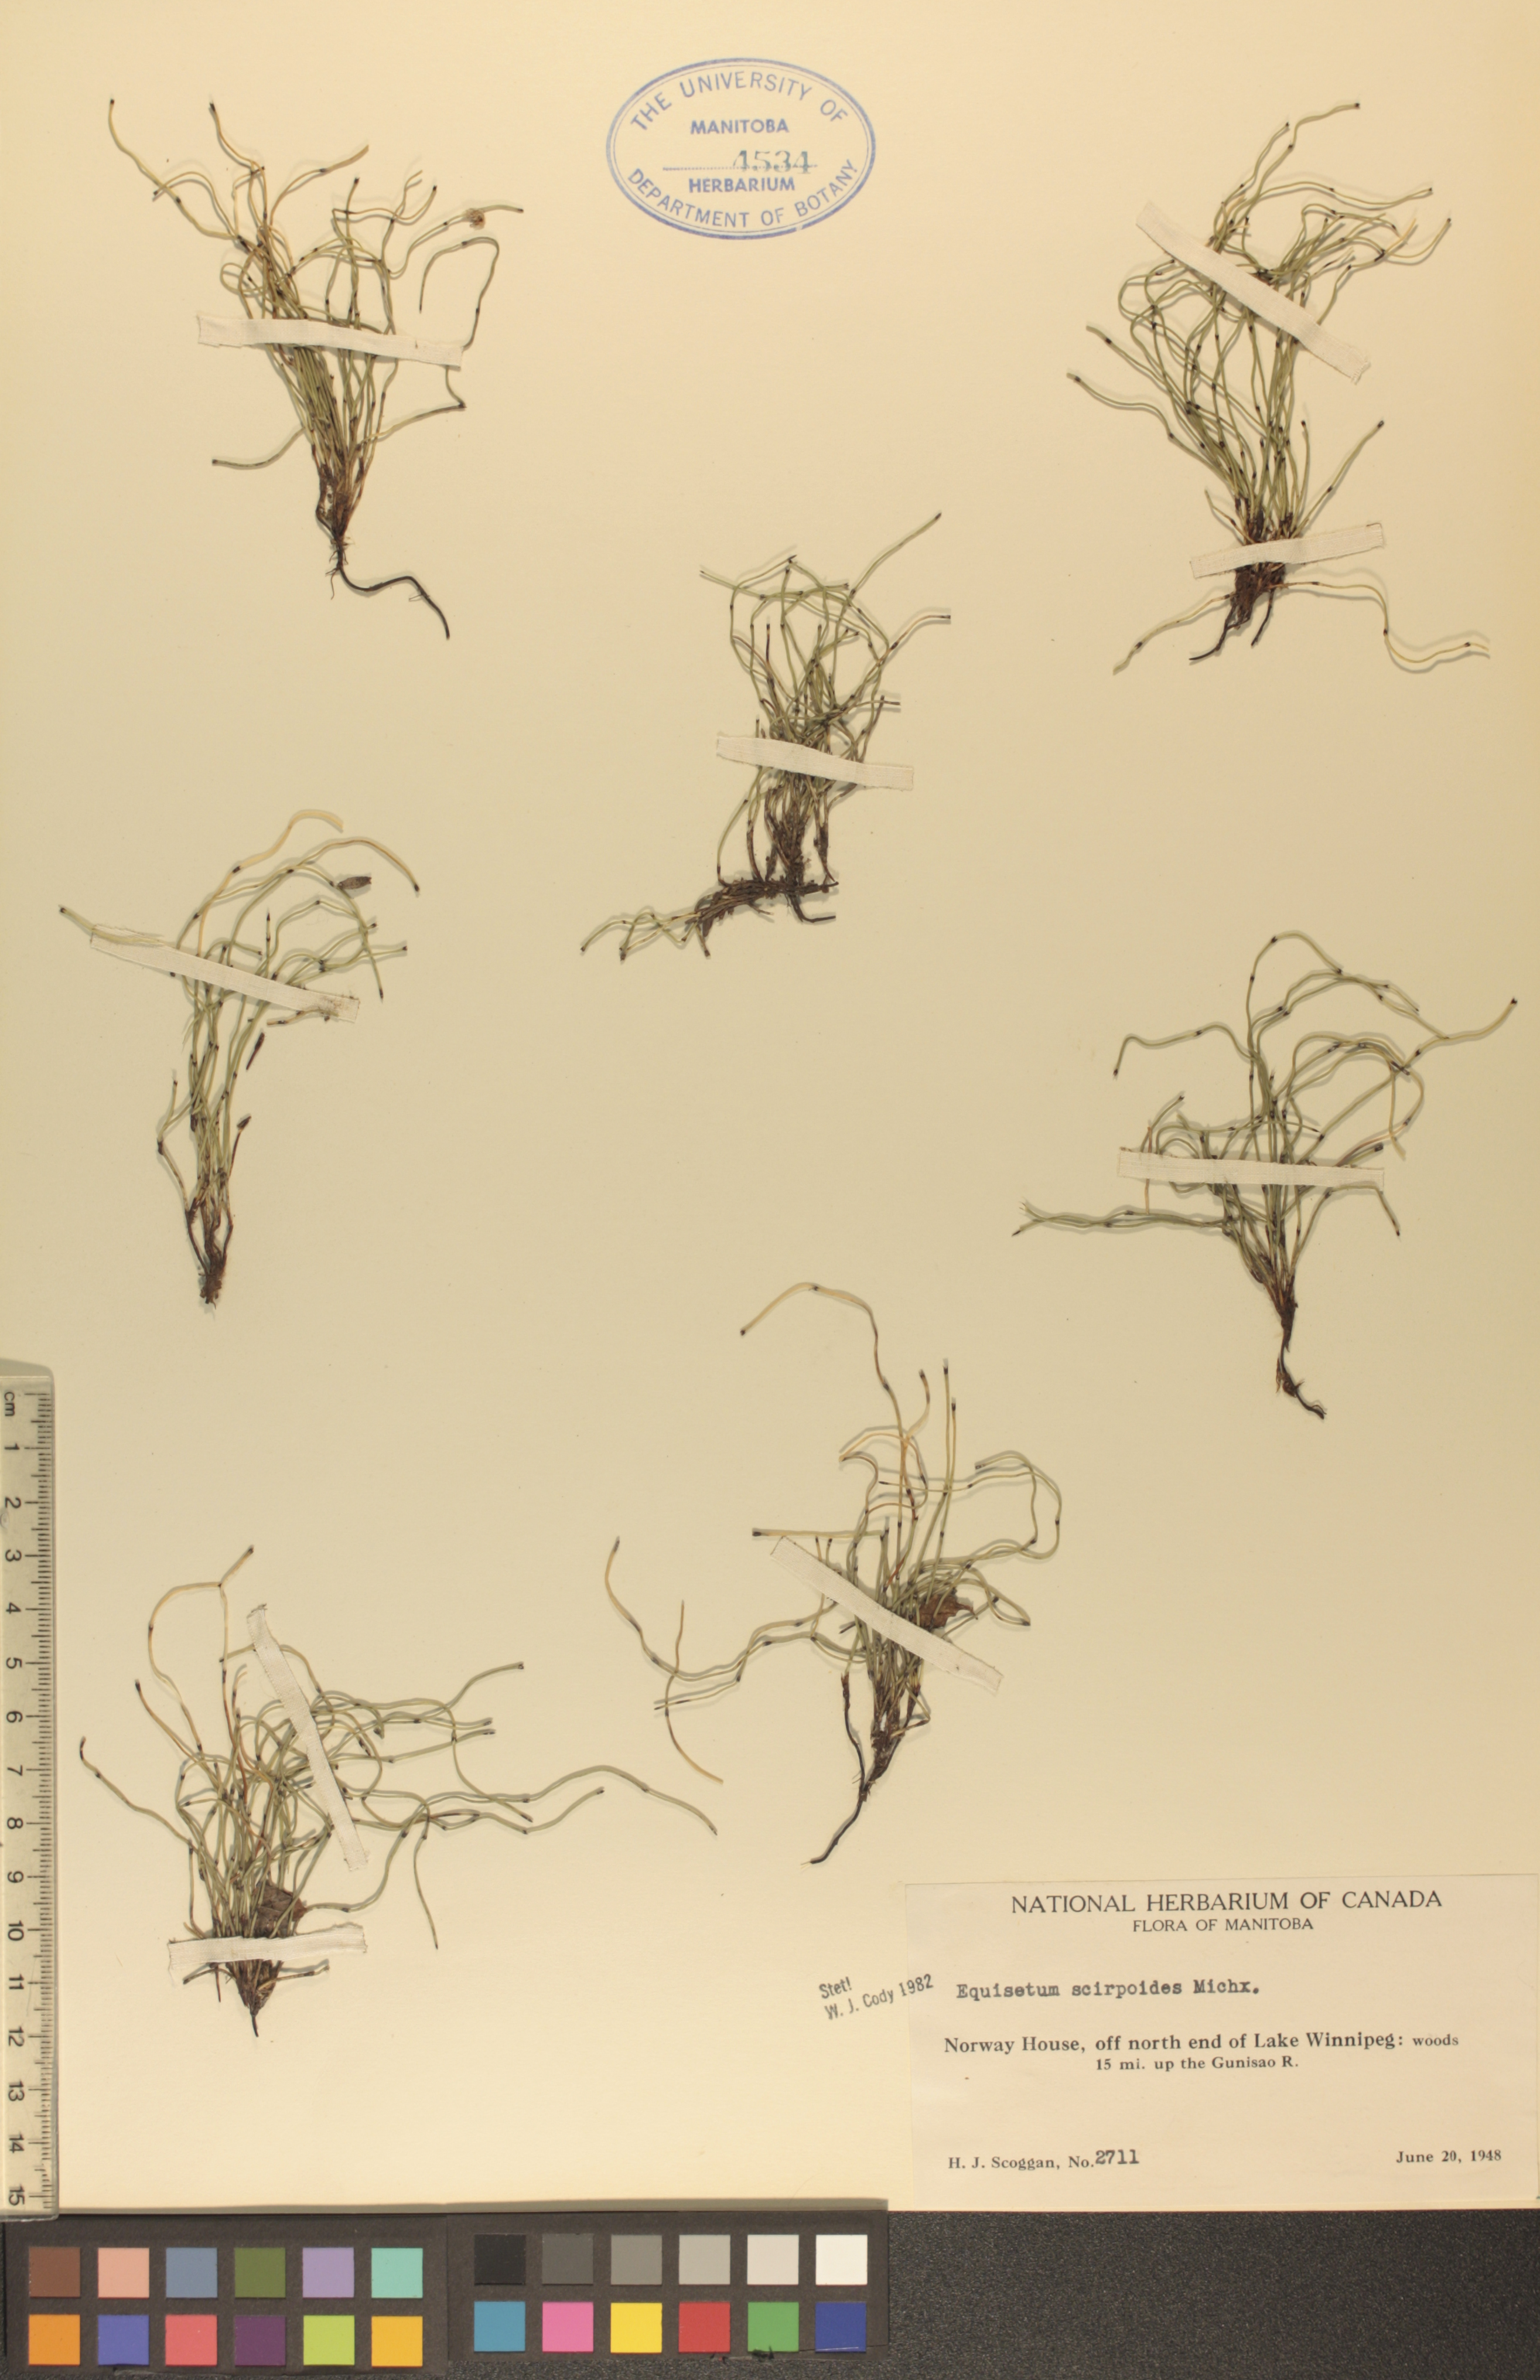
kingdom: Plantae
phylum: Tracheophyta
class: Polypodiopsida
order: Equisetales
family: Equisetaceae
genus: Equisetum
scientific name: Equisetum scirpoides
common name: Delicate horsetail
